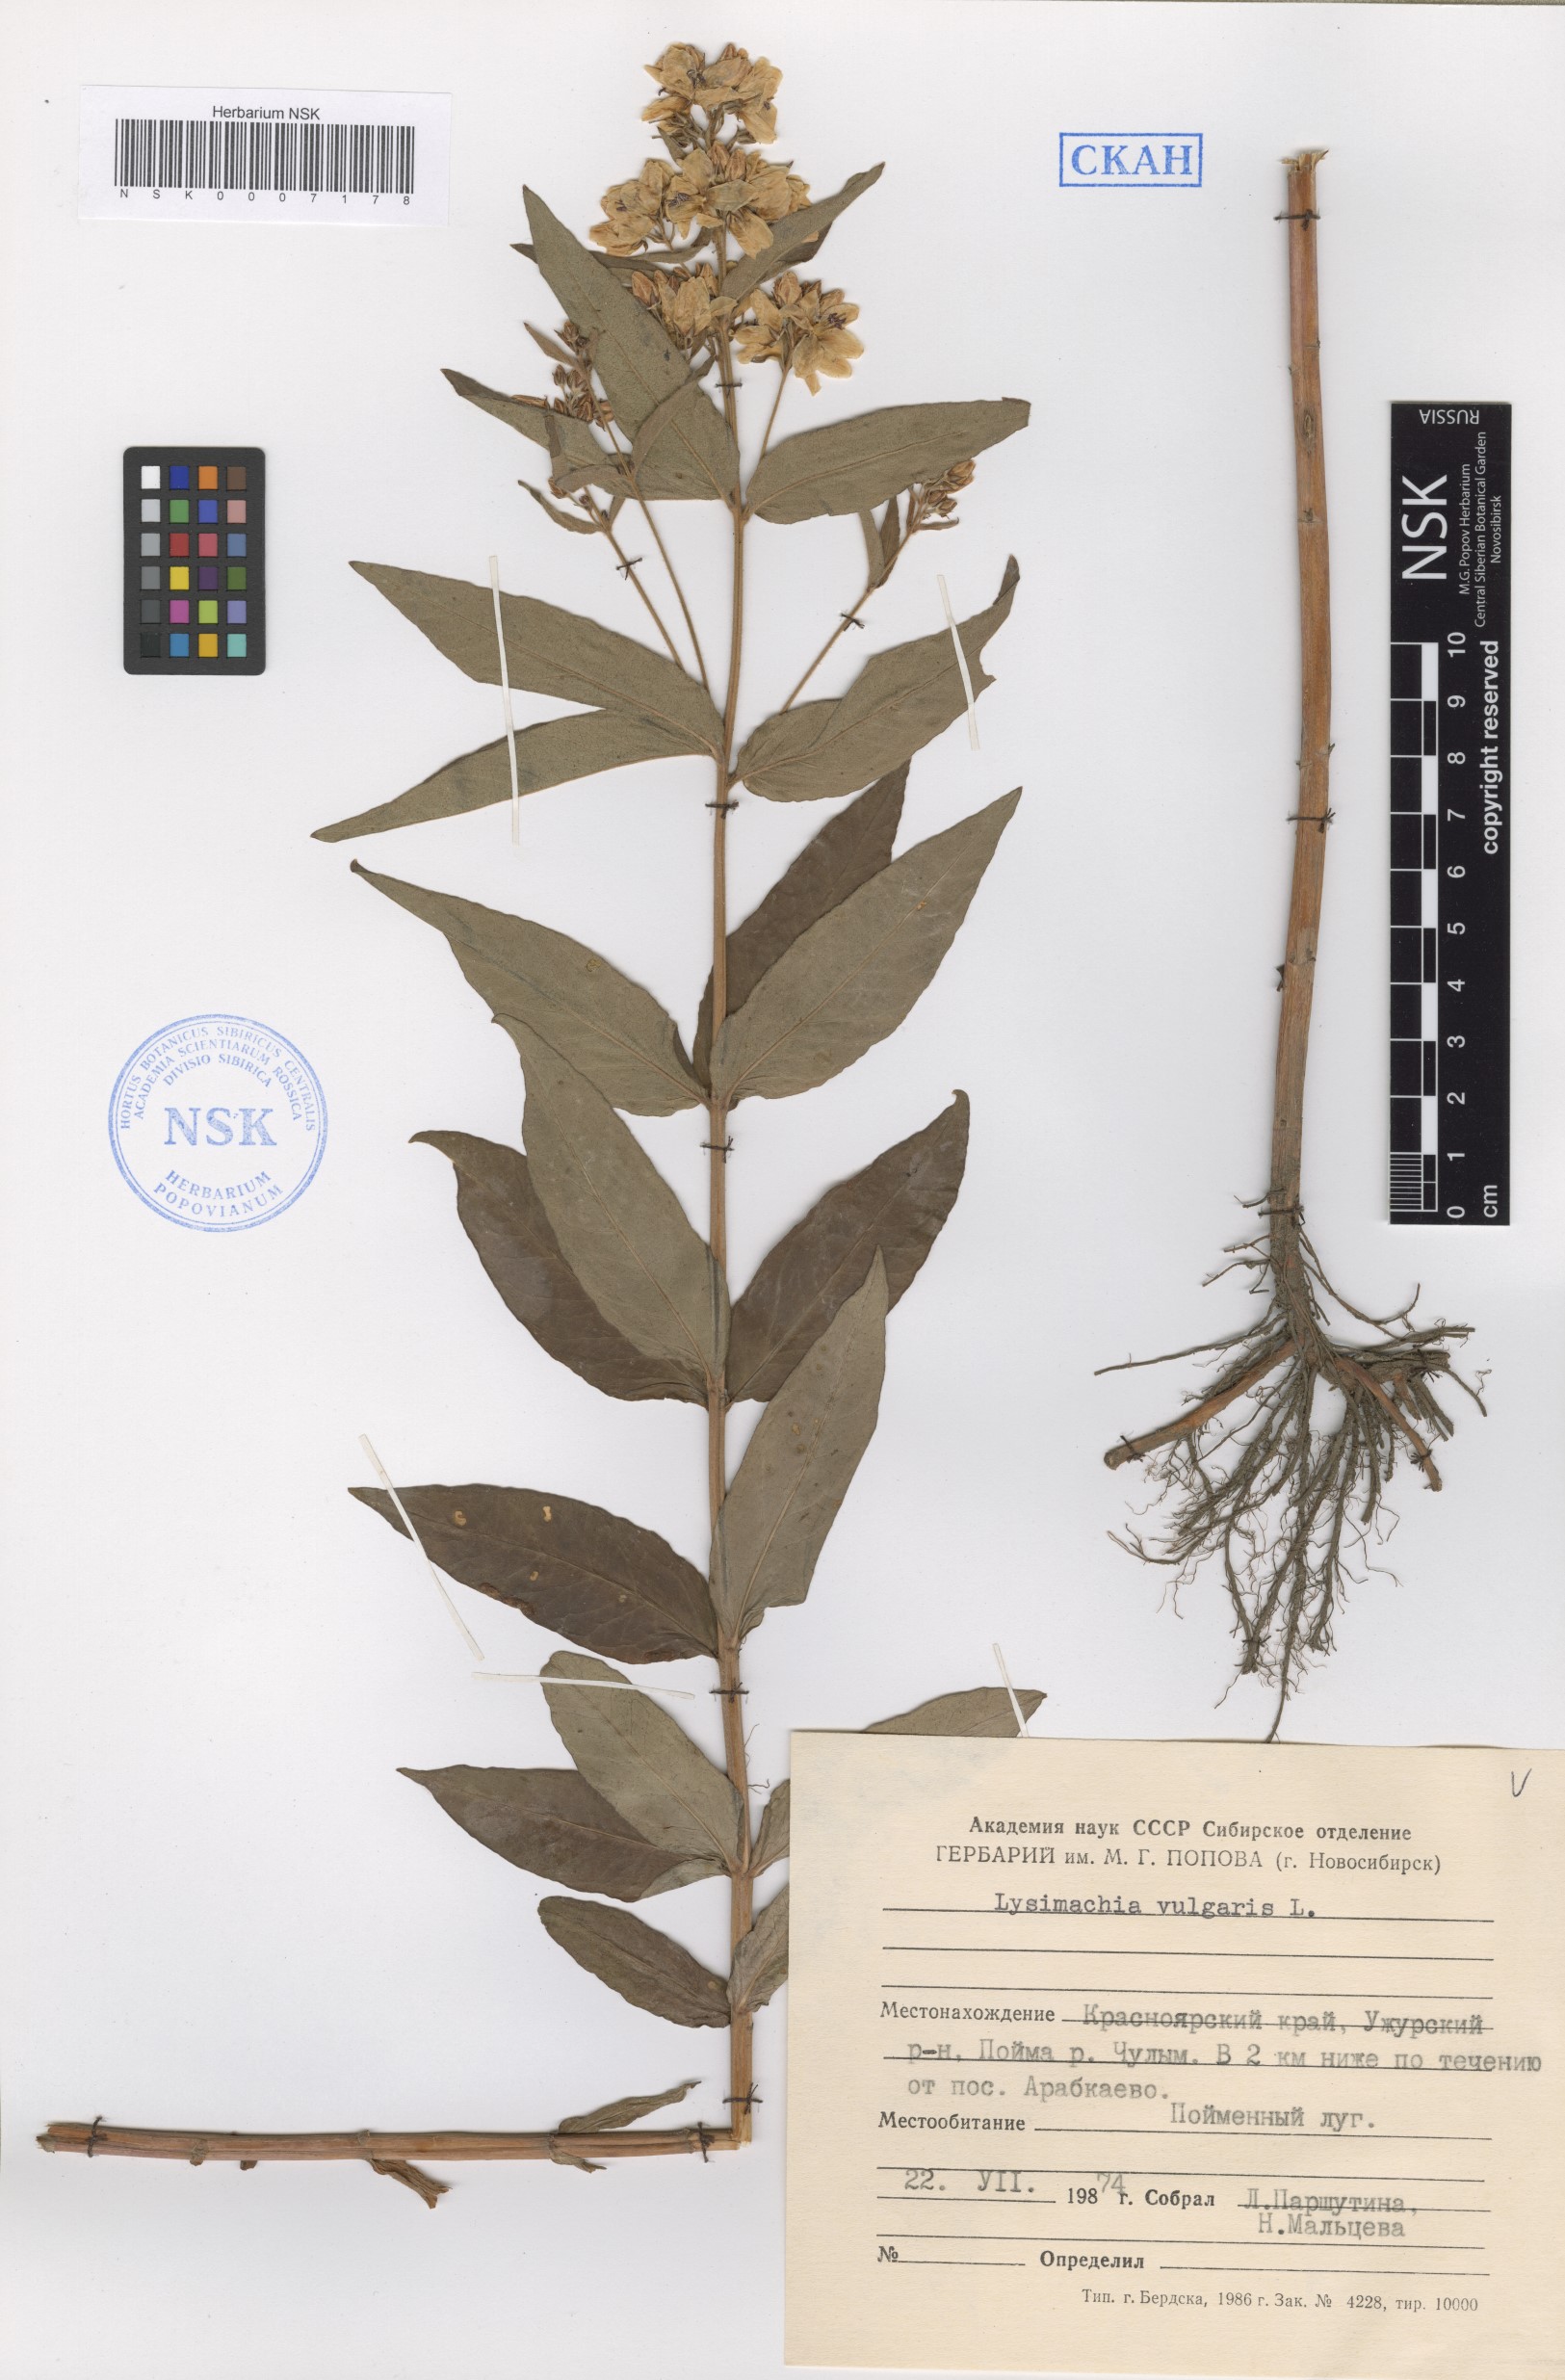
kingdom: Plantae
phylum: Tracheophyta
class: Magnoliopsida
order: Ericales
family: Primulaceae
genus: Lysimachia
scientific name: Lysimachia vulgaris
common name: Yellow loosestrife
